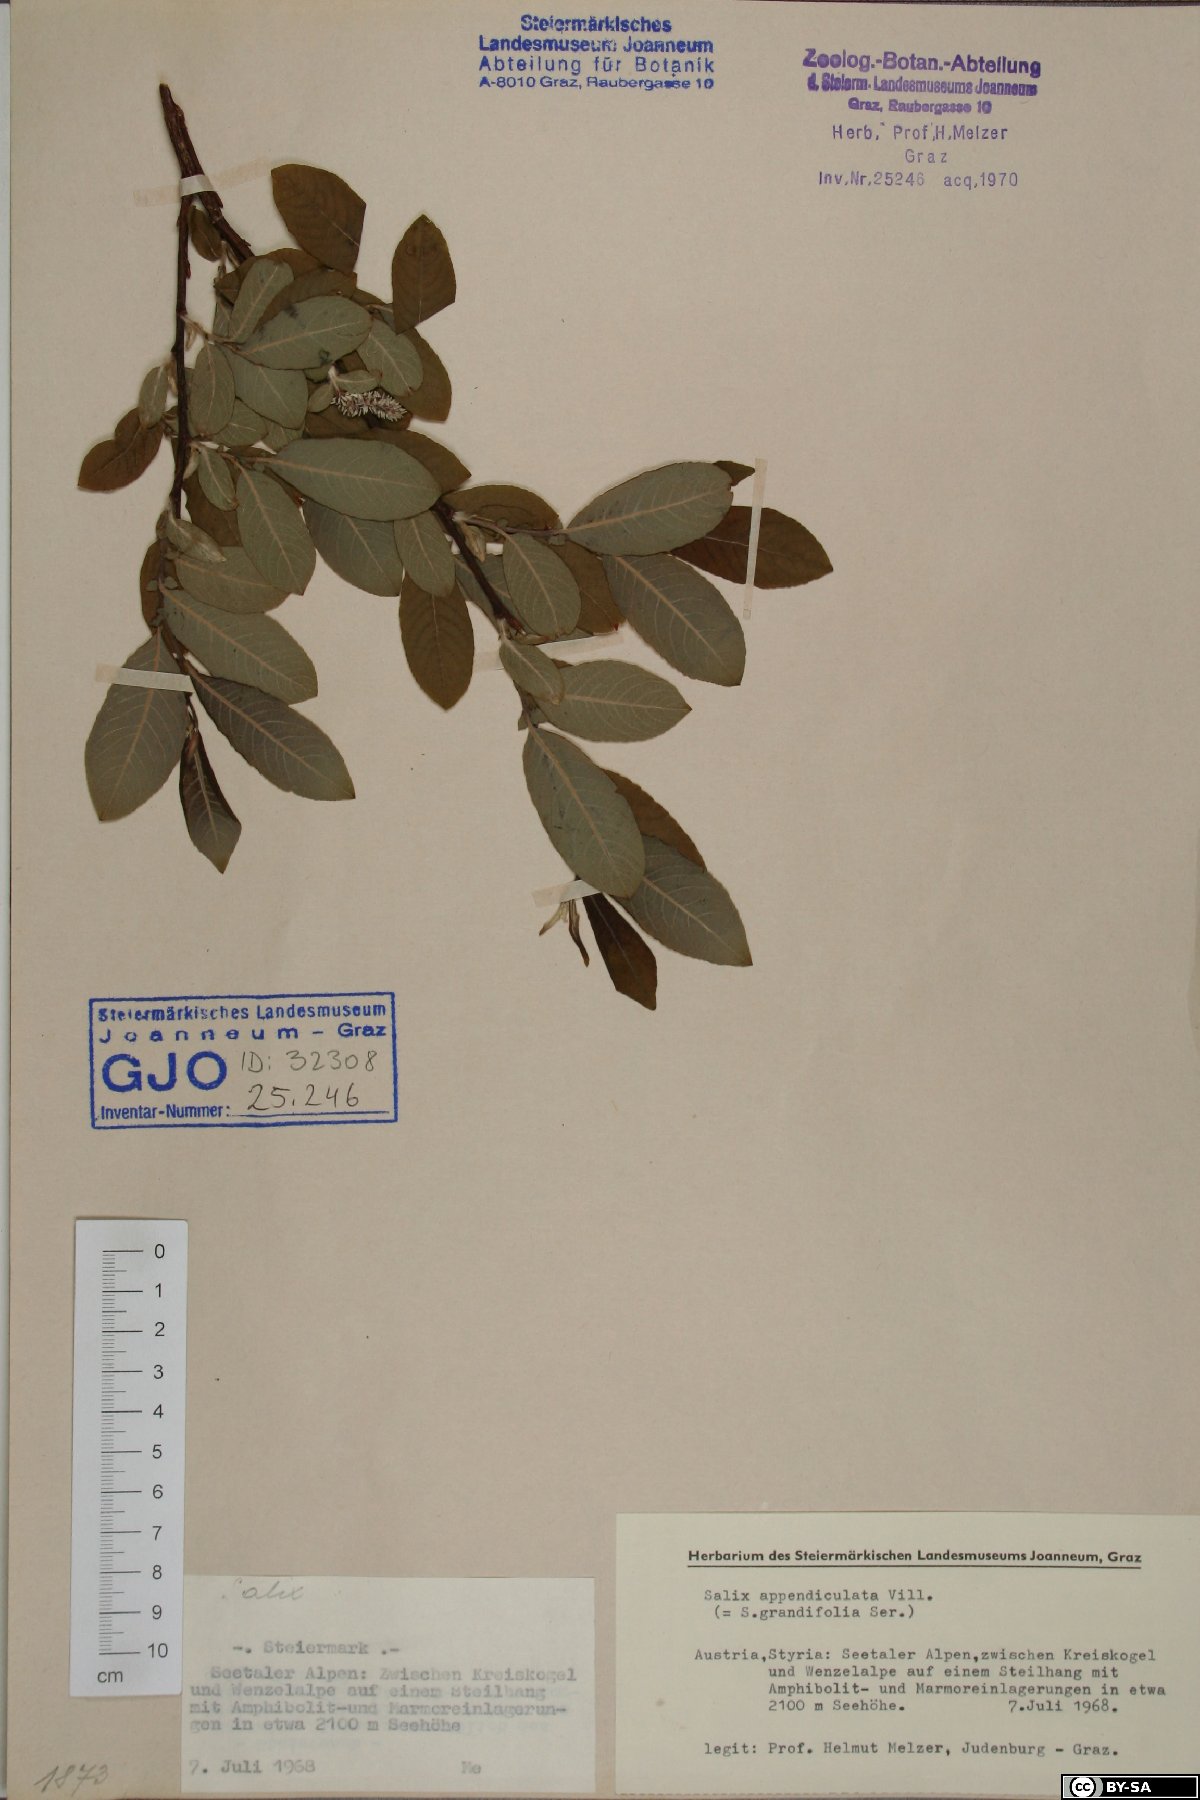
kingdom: Plantae
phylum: Tracheophyta
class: Magnoliopsida
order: Malpighiales
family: Salicaceae
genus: Salix
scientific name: Salix appendiculata
